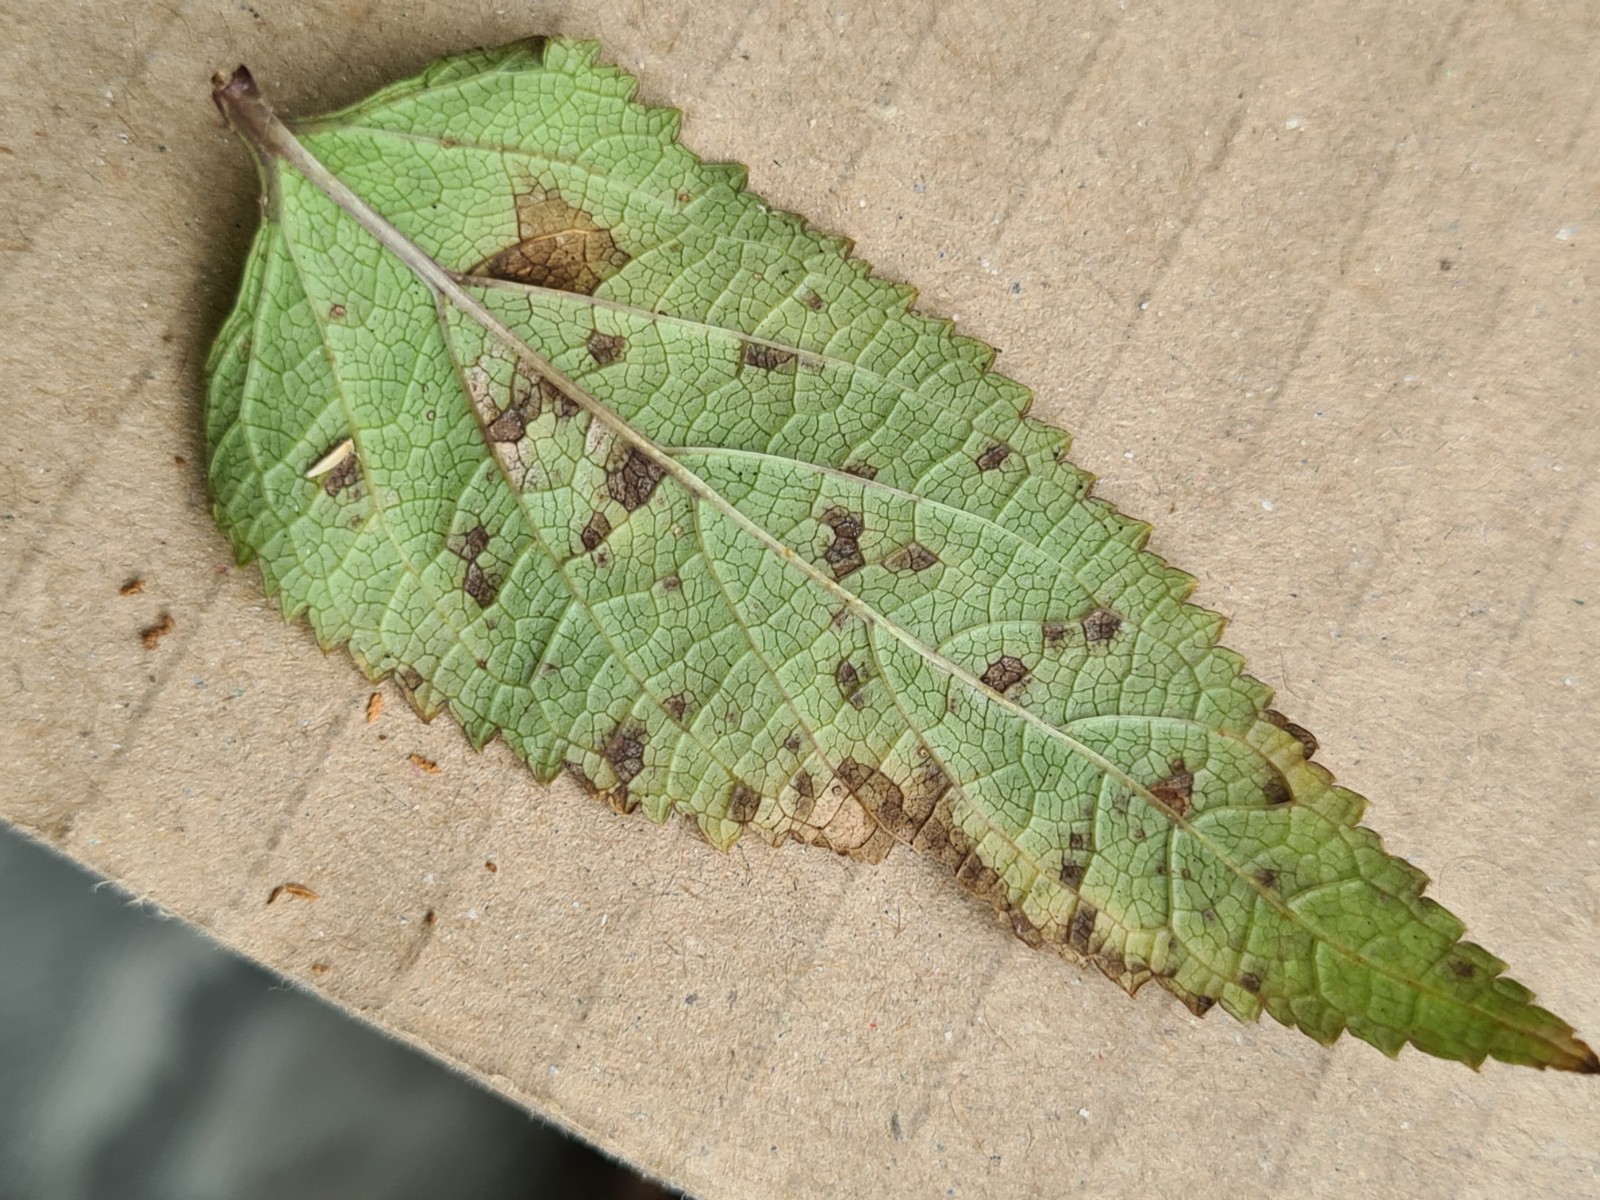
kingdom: Fungi
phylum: Ascomycota
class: Dothideomycetes
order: Mycosphaerellales
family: Mycosphaerellaceae
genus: Ramularia
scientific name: Ramularia carneola
